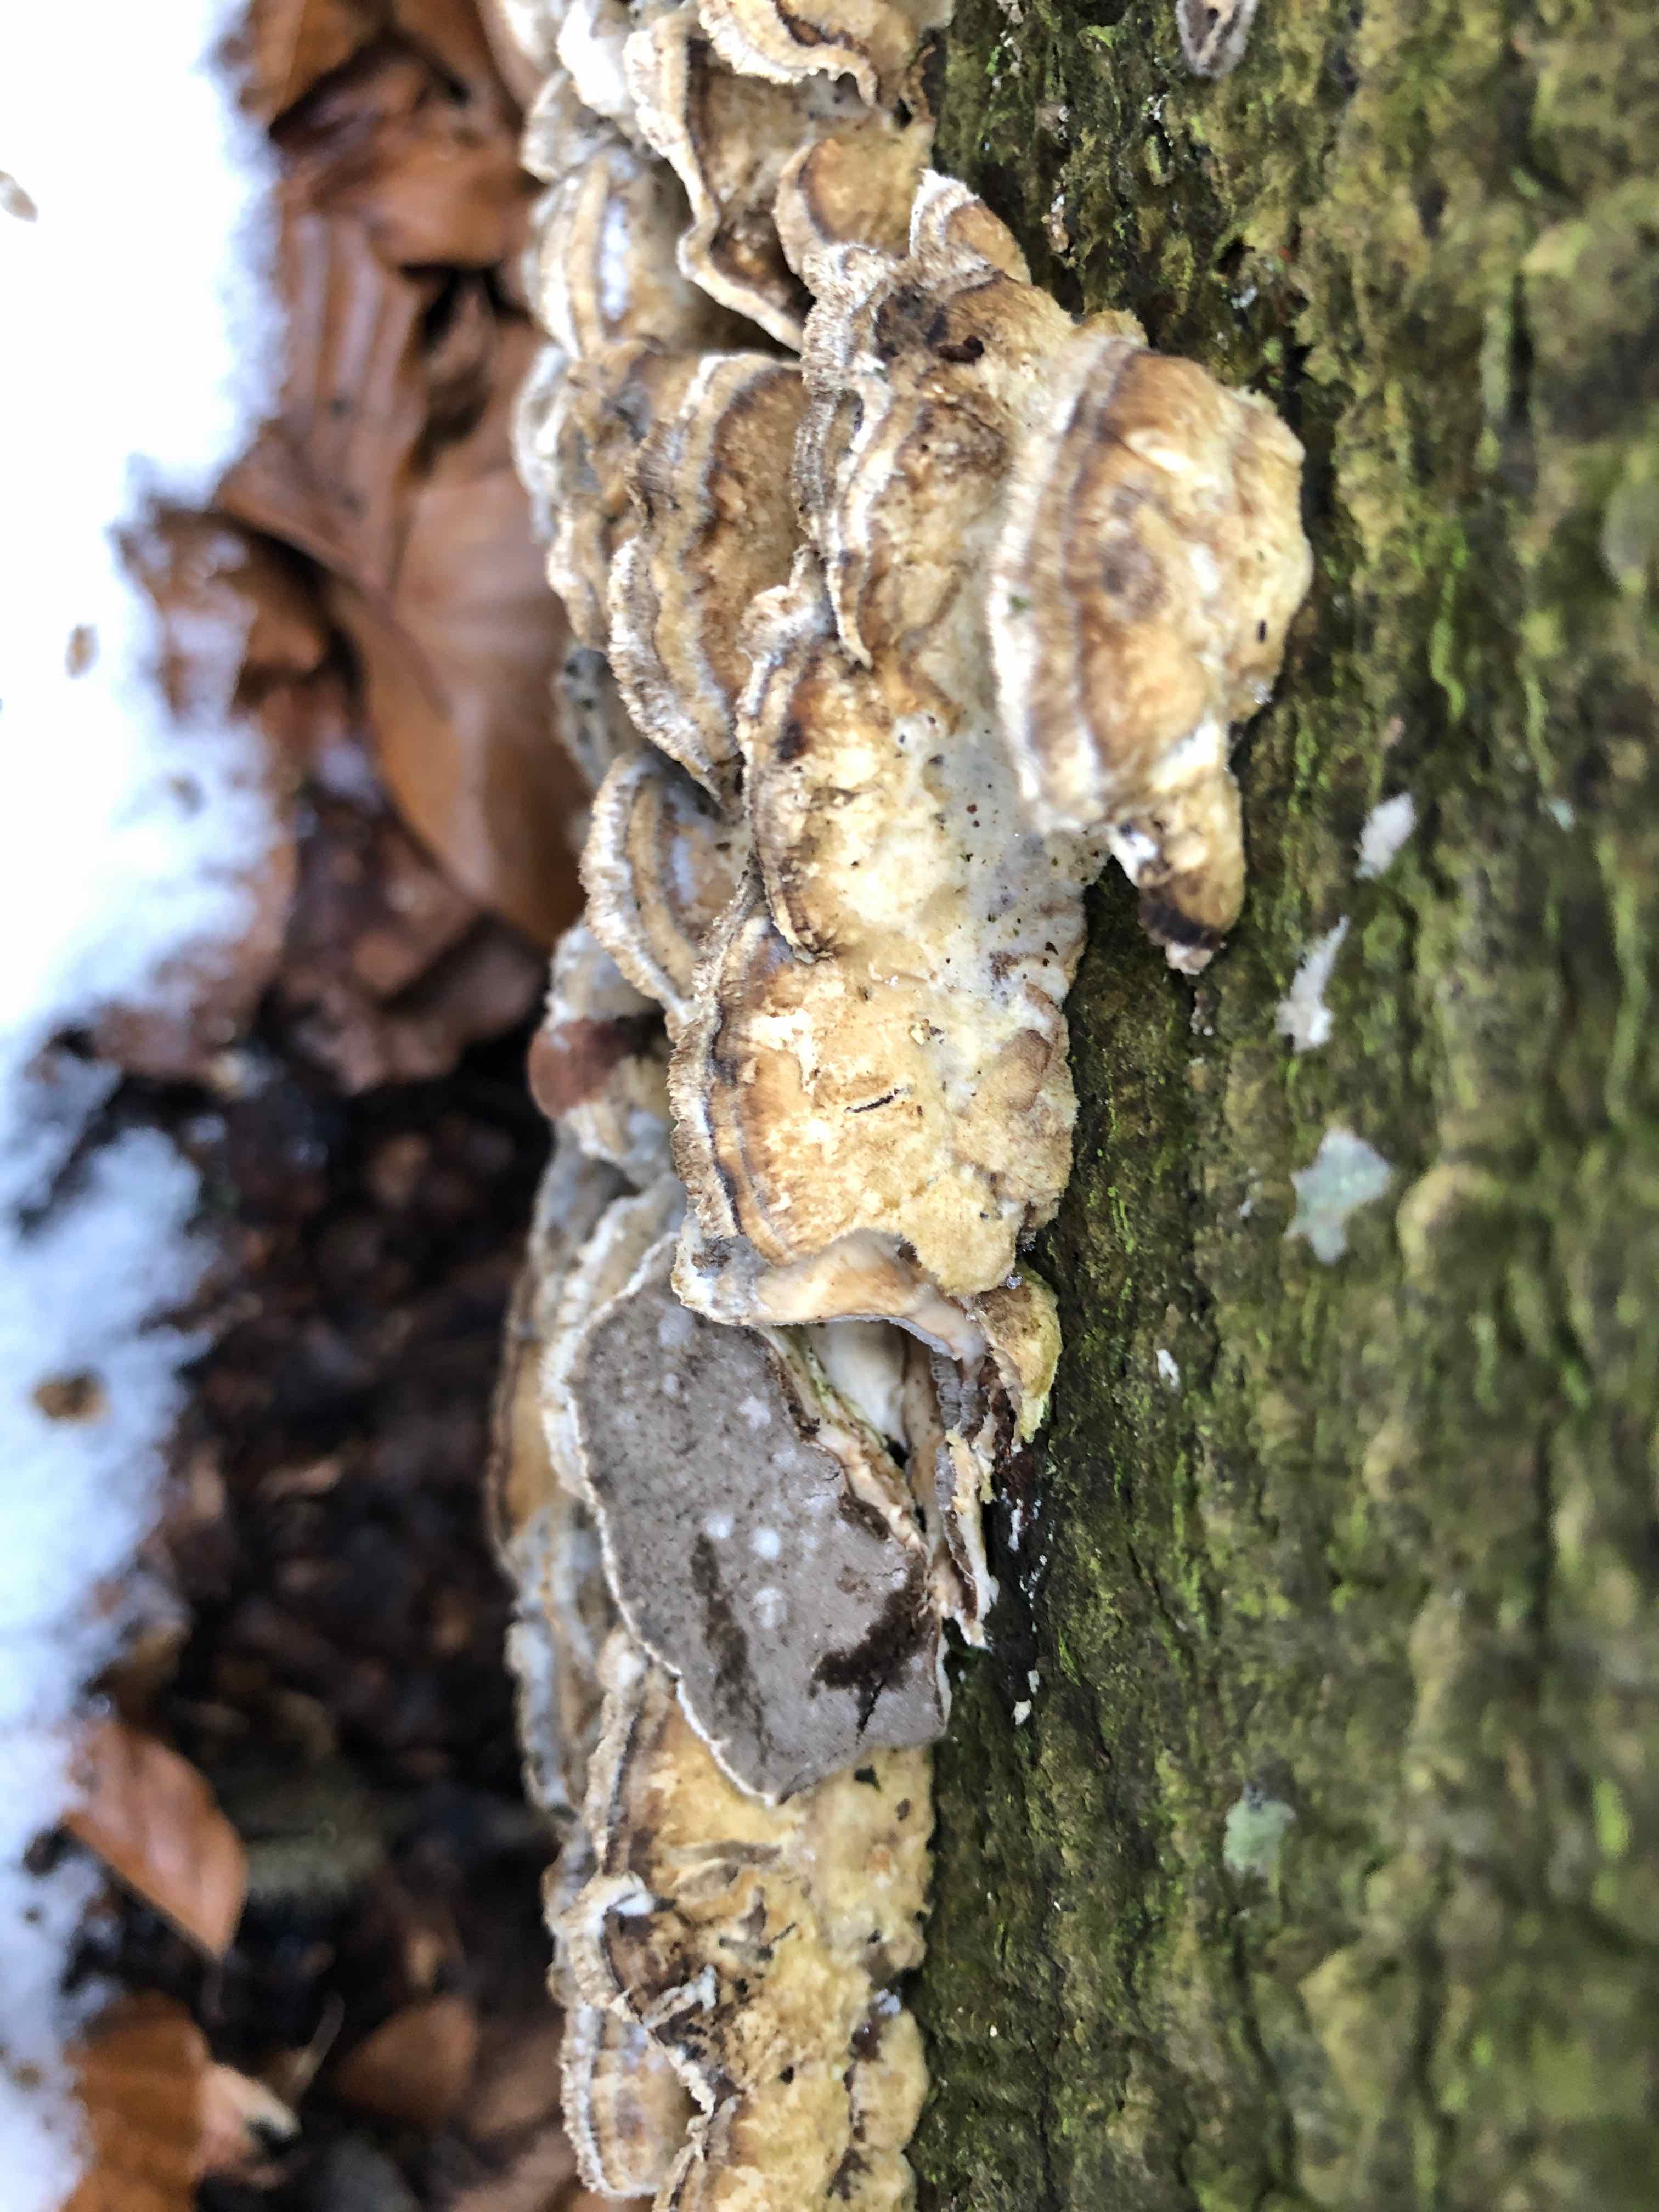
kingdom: Fungi
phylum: Basidiomycota
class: Agaricomycetes
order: Polyporales
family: Phanerochaetaceae
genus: Bjerkandera
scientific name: Bjerkandera adusta
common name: sveden sodporesvamp
